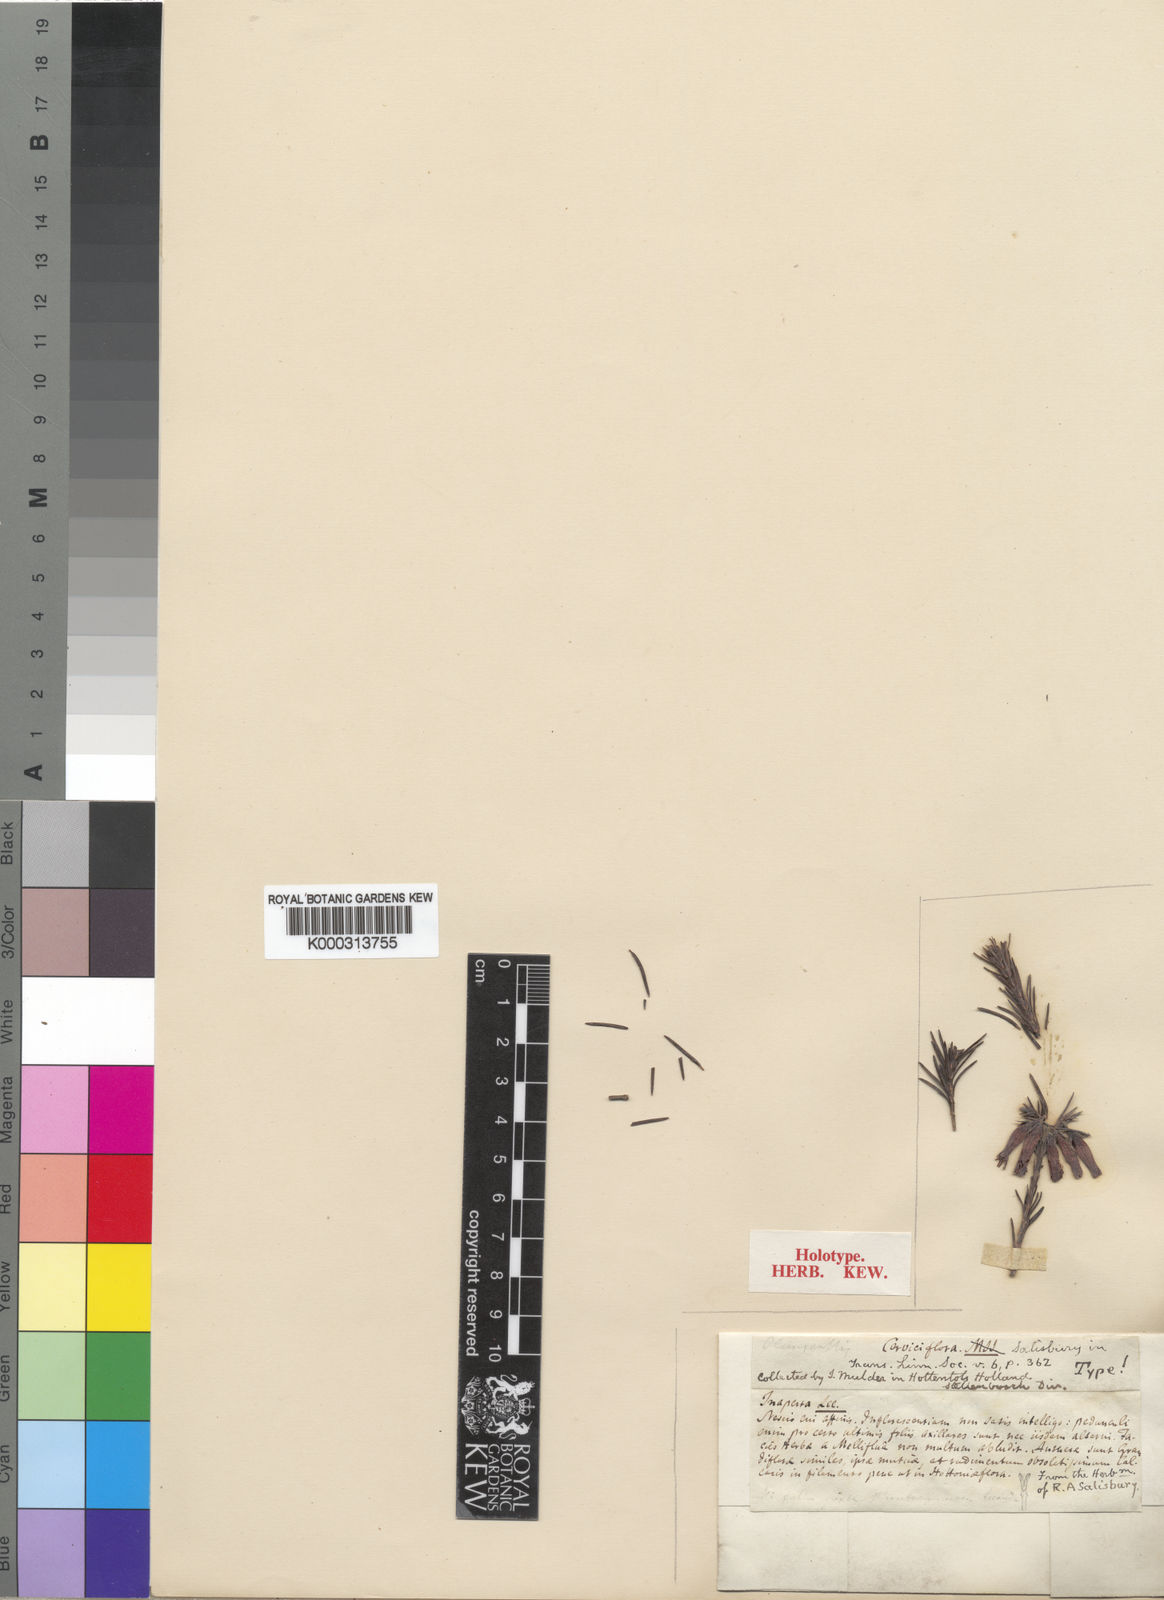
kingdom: Plantae
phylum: Tracheophyta
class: Magnoliopsida
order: Ericales
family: Ericaceae
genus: Erica
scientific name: Erica cernua
